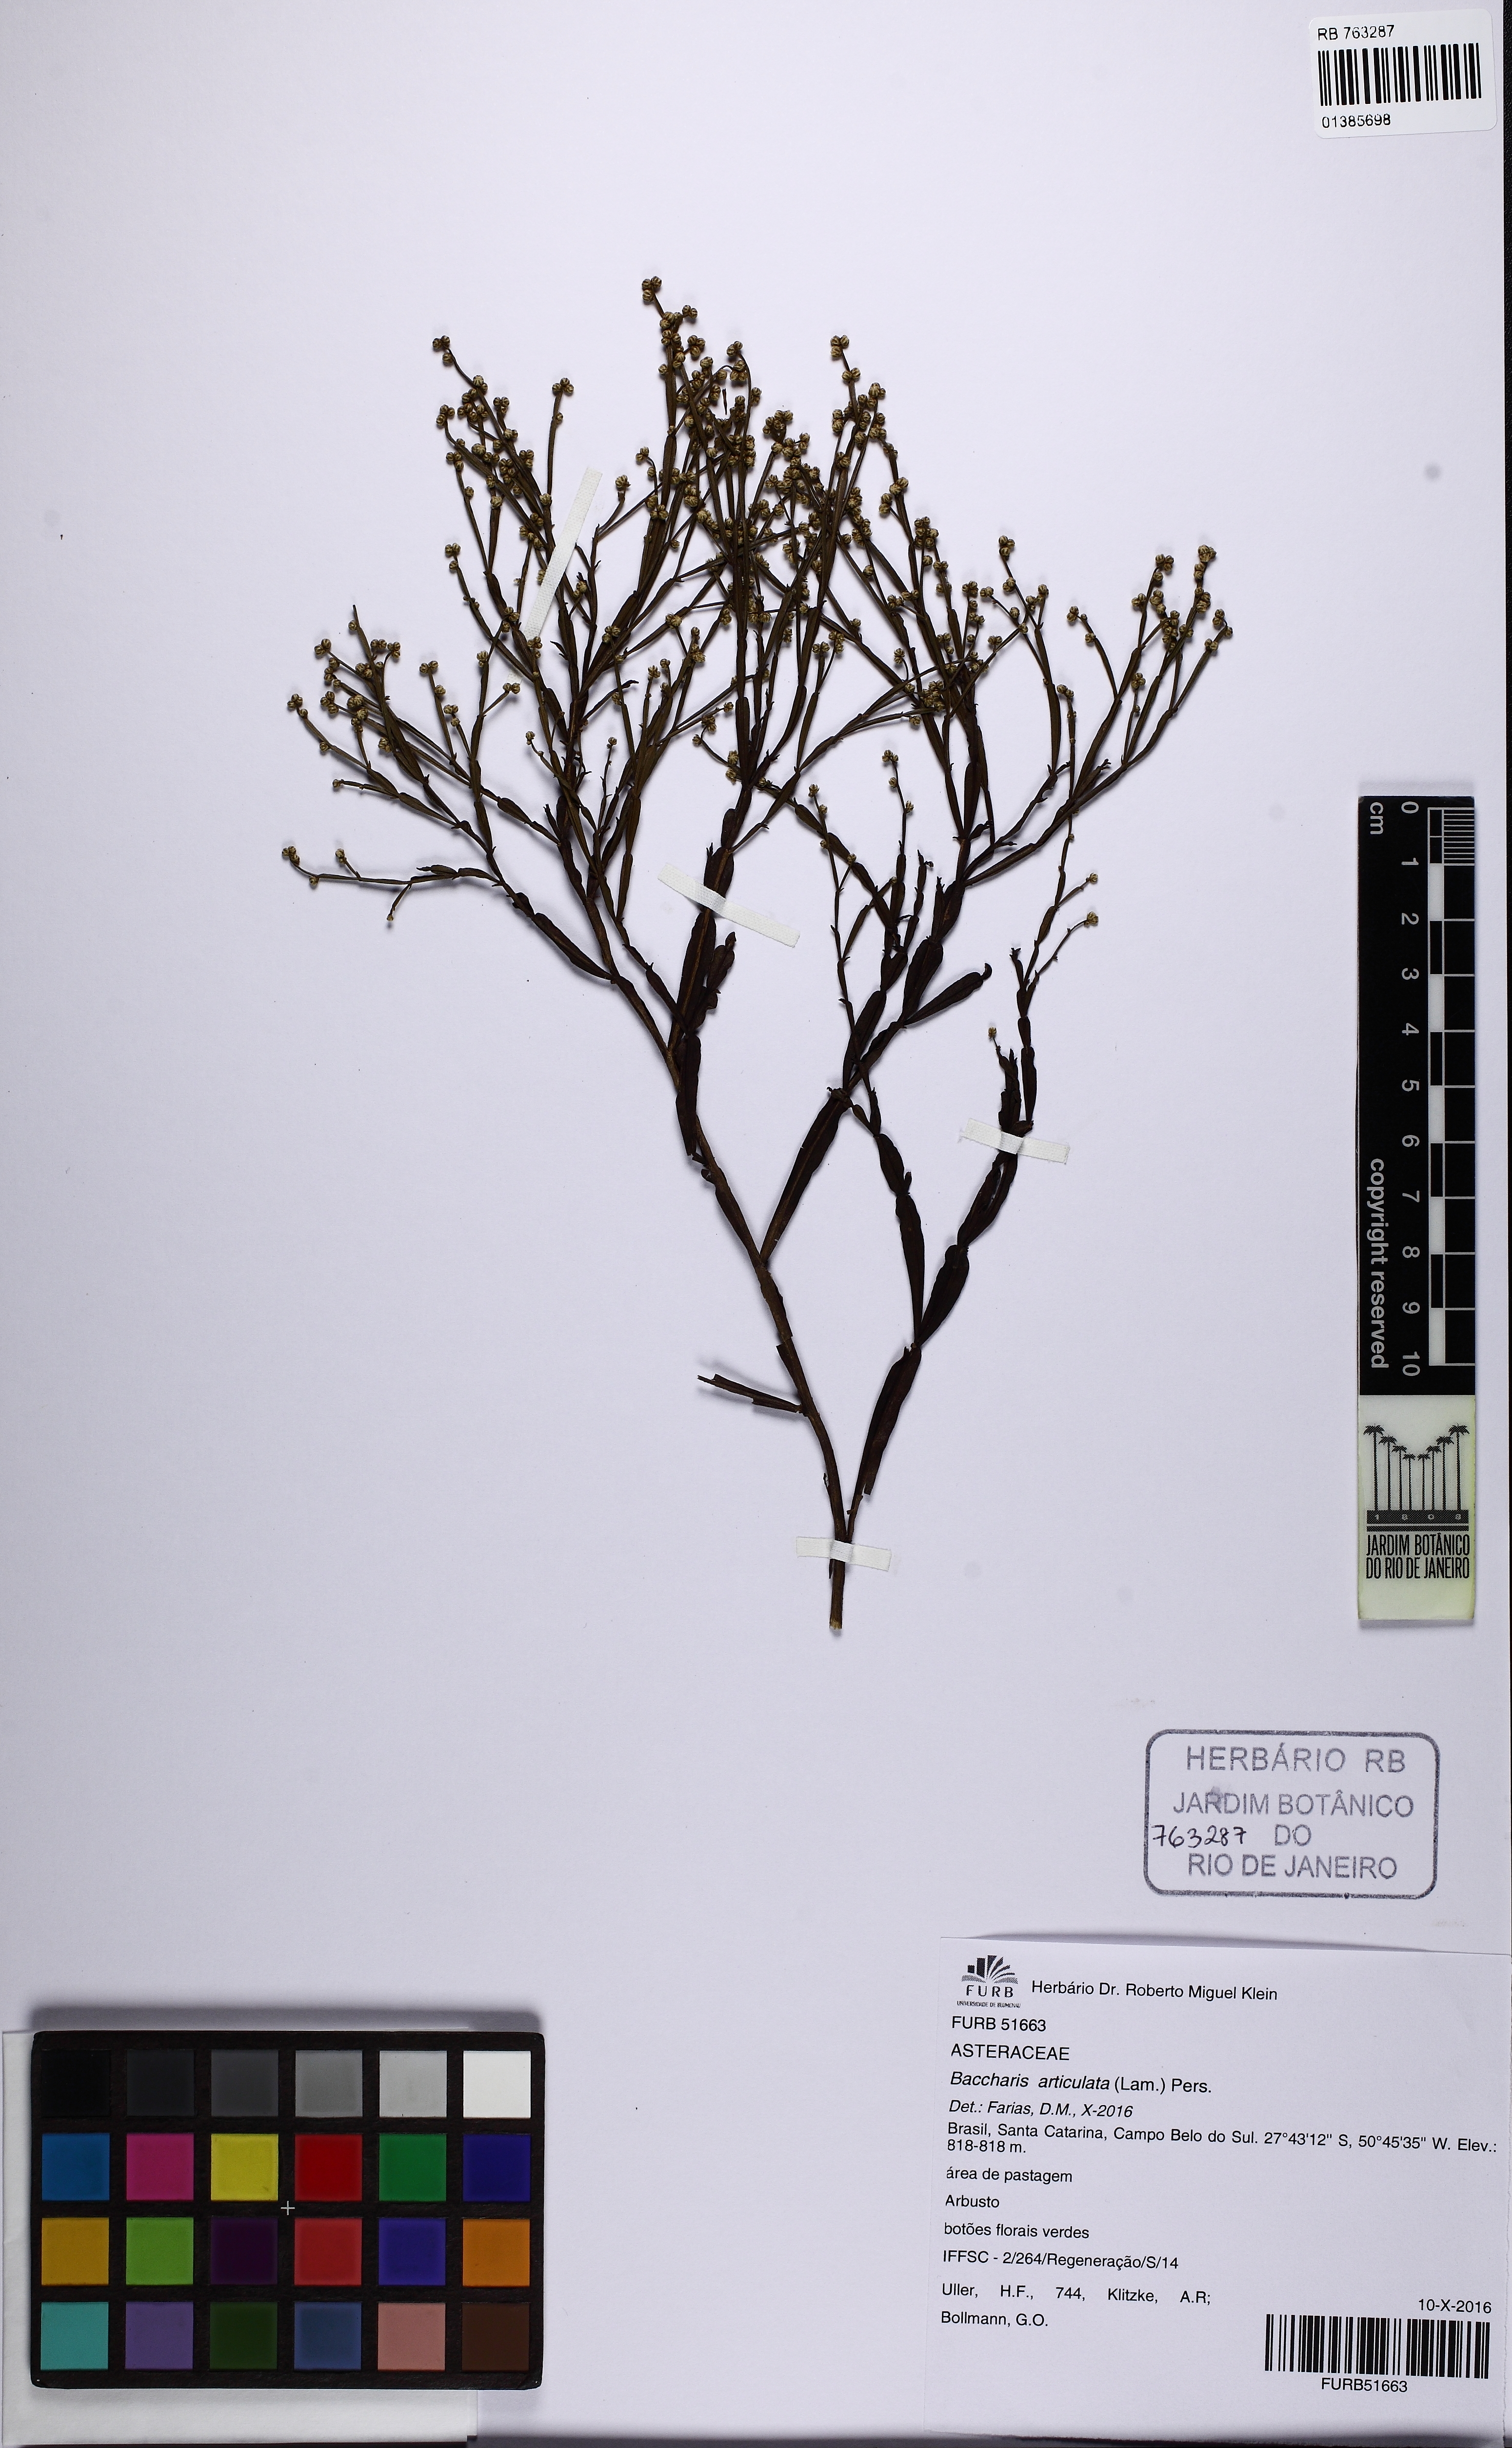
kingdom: Plantae
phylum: Tracheophyta
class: Magnoliopsida
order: Asterales
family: Asteraceae
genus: Baccharis
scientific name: Baccharis articulata
